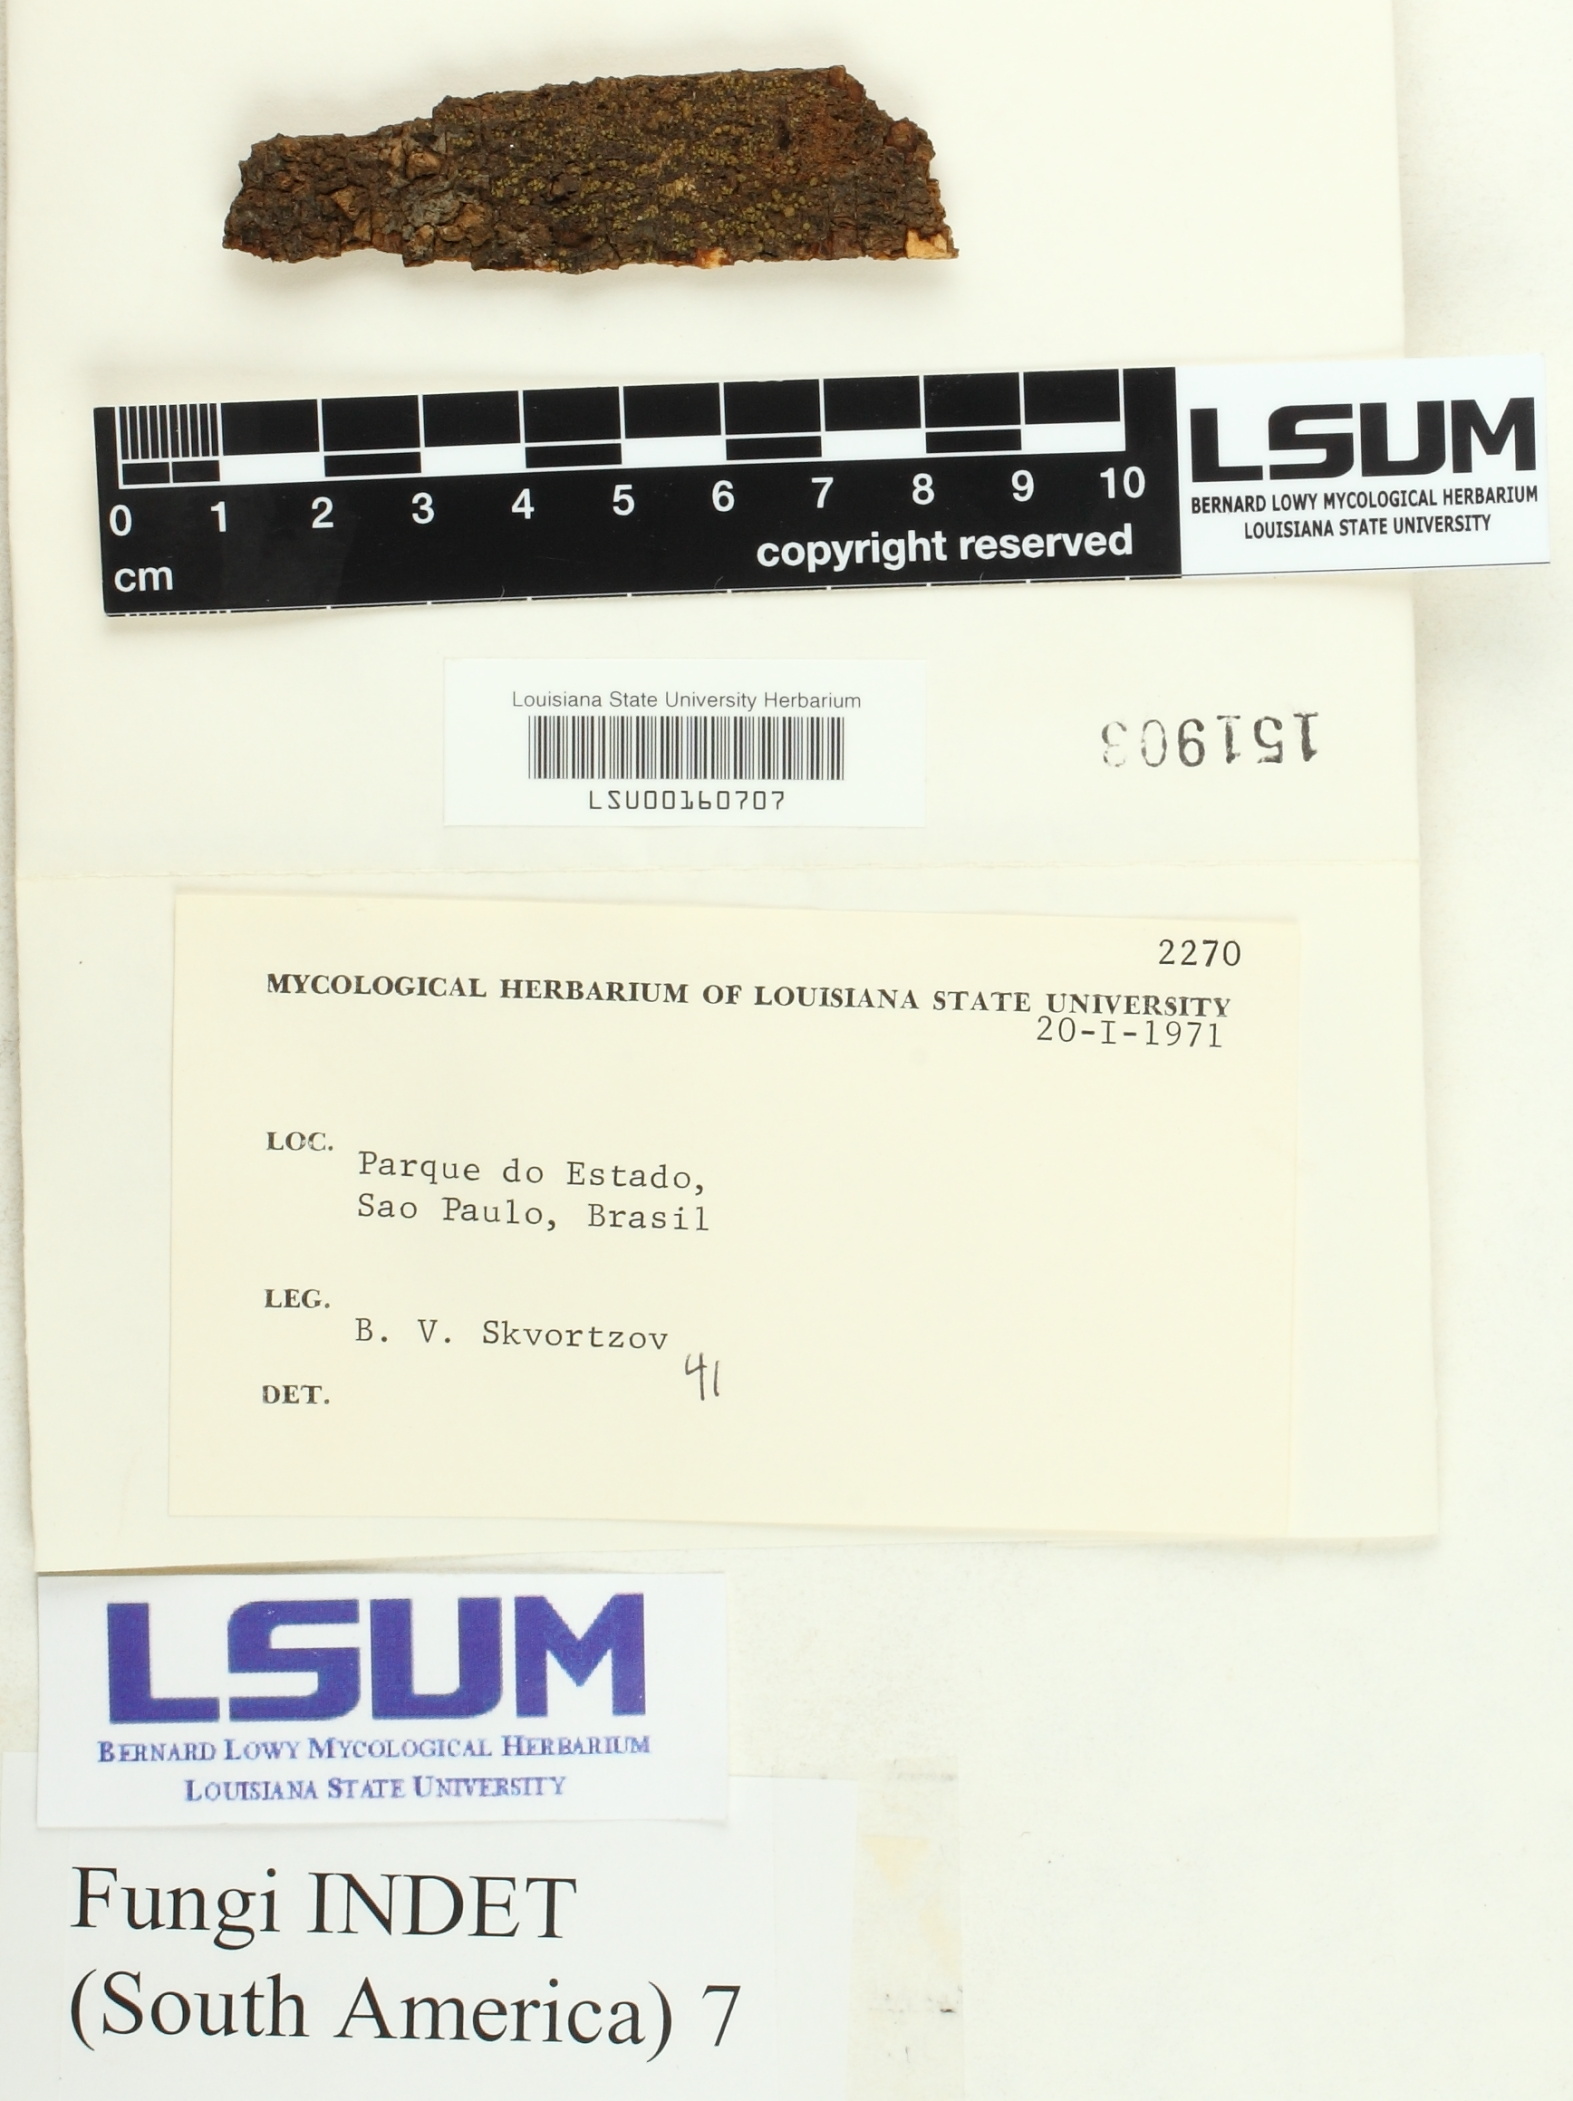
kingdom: Fungi
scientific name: Fungi
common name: Fungi
